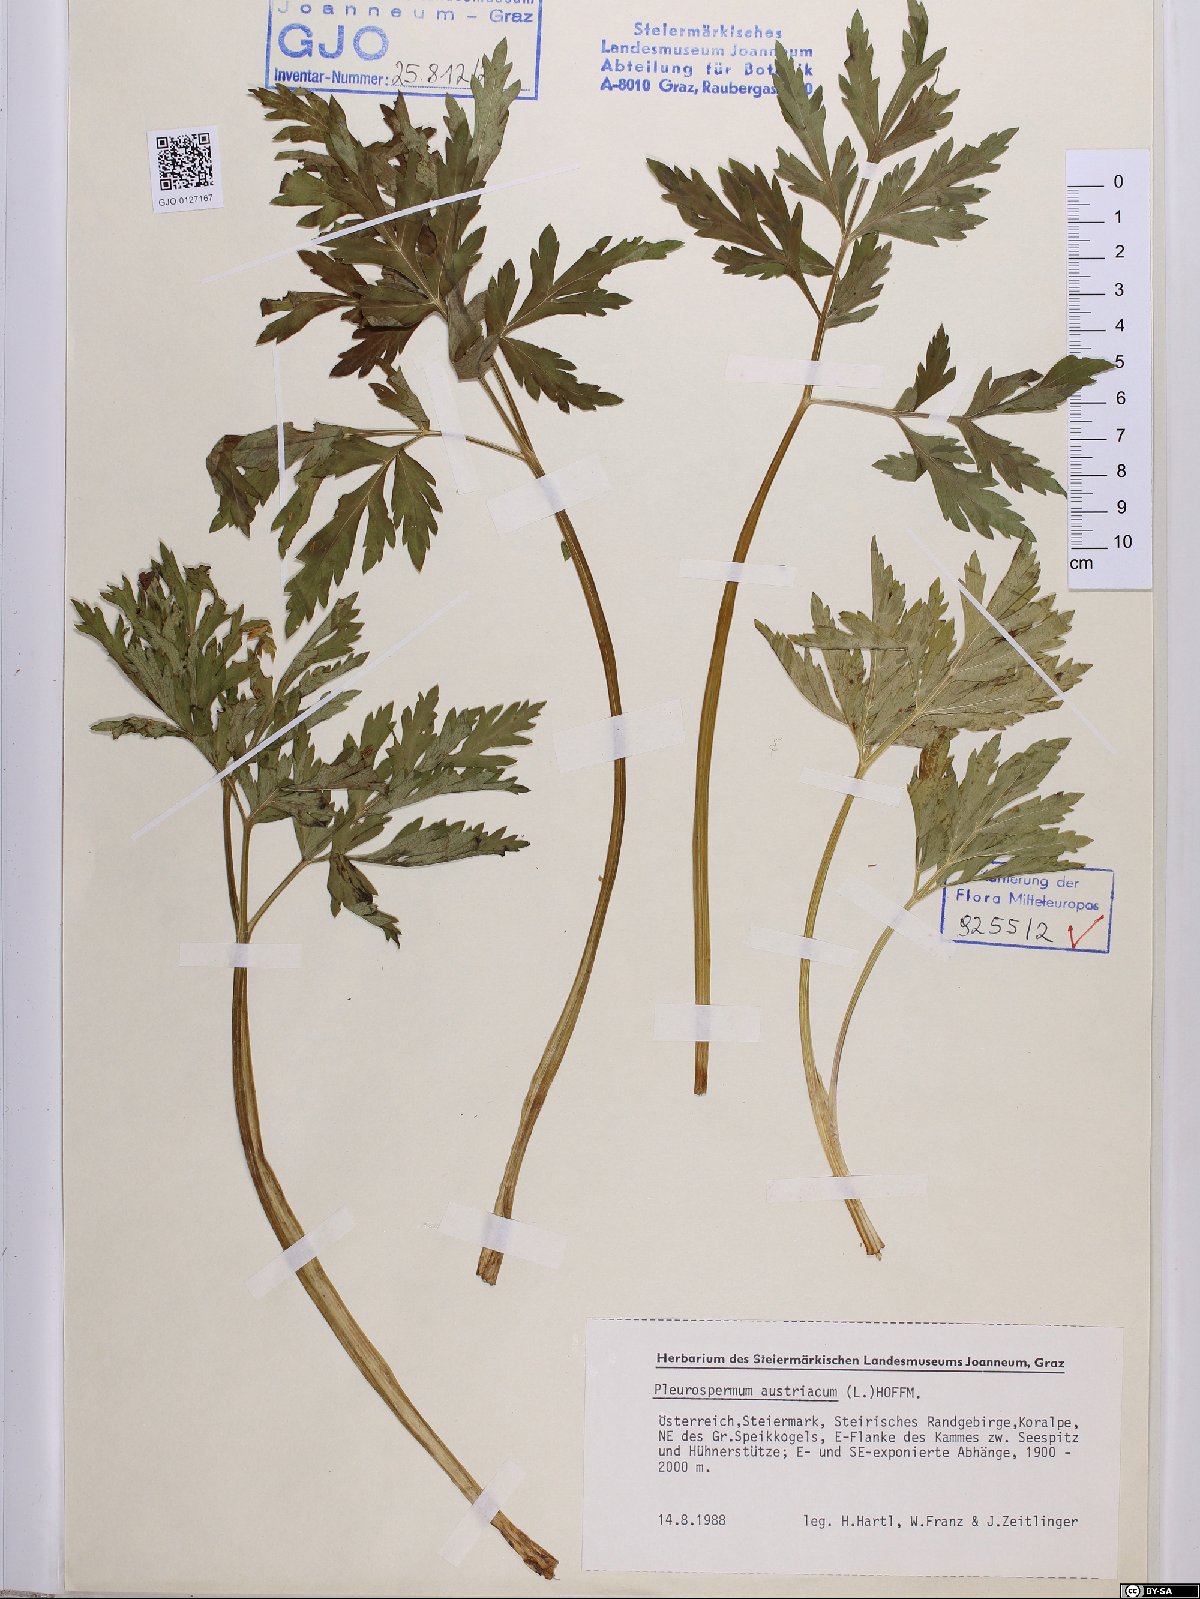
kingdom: Plantae
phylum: Tracheophyta
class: Magnoliopsida
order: Apiales
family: Apiaceae
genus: Pleurospermum
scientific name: Pleurospermum austriacum
